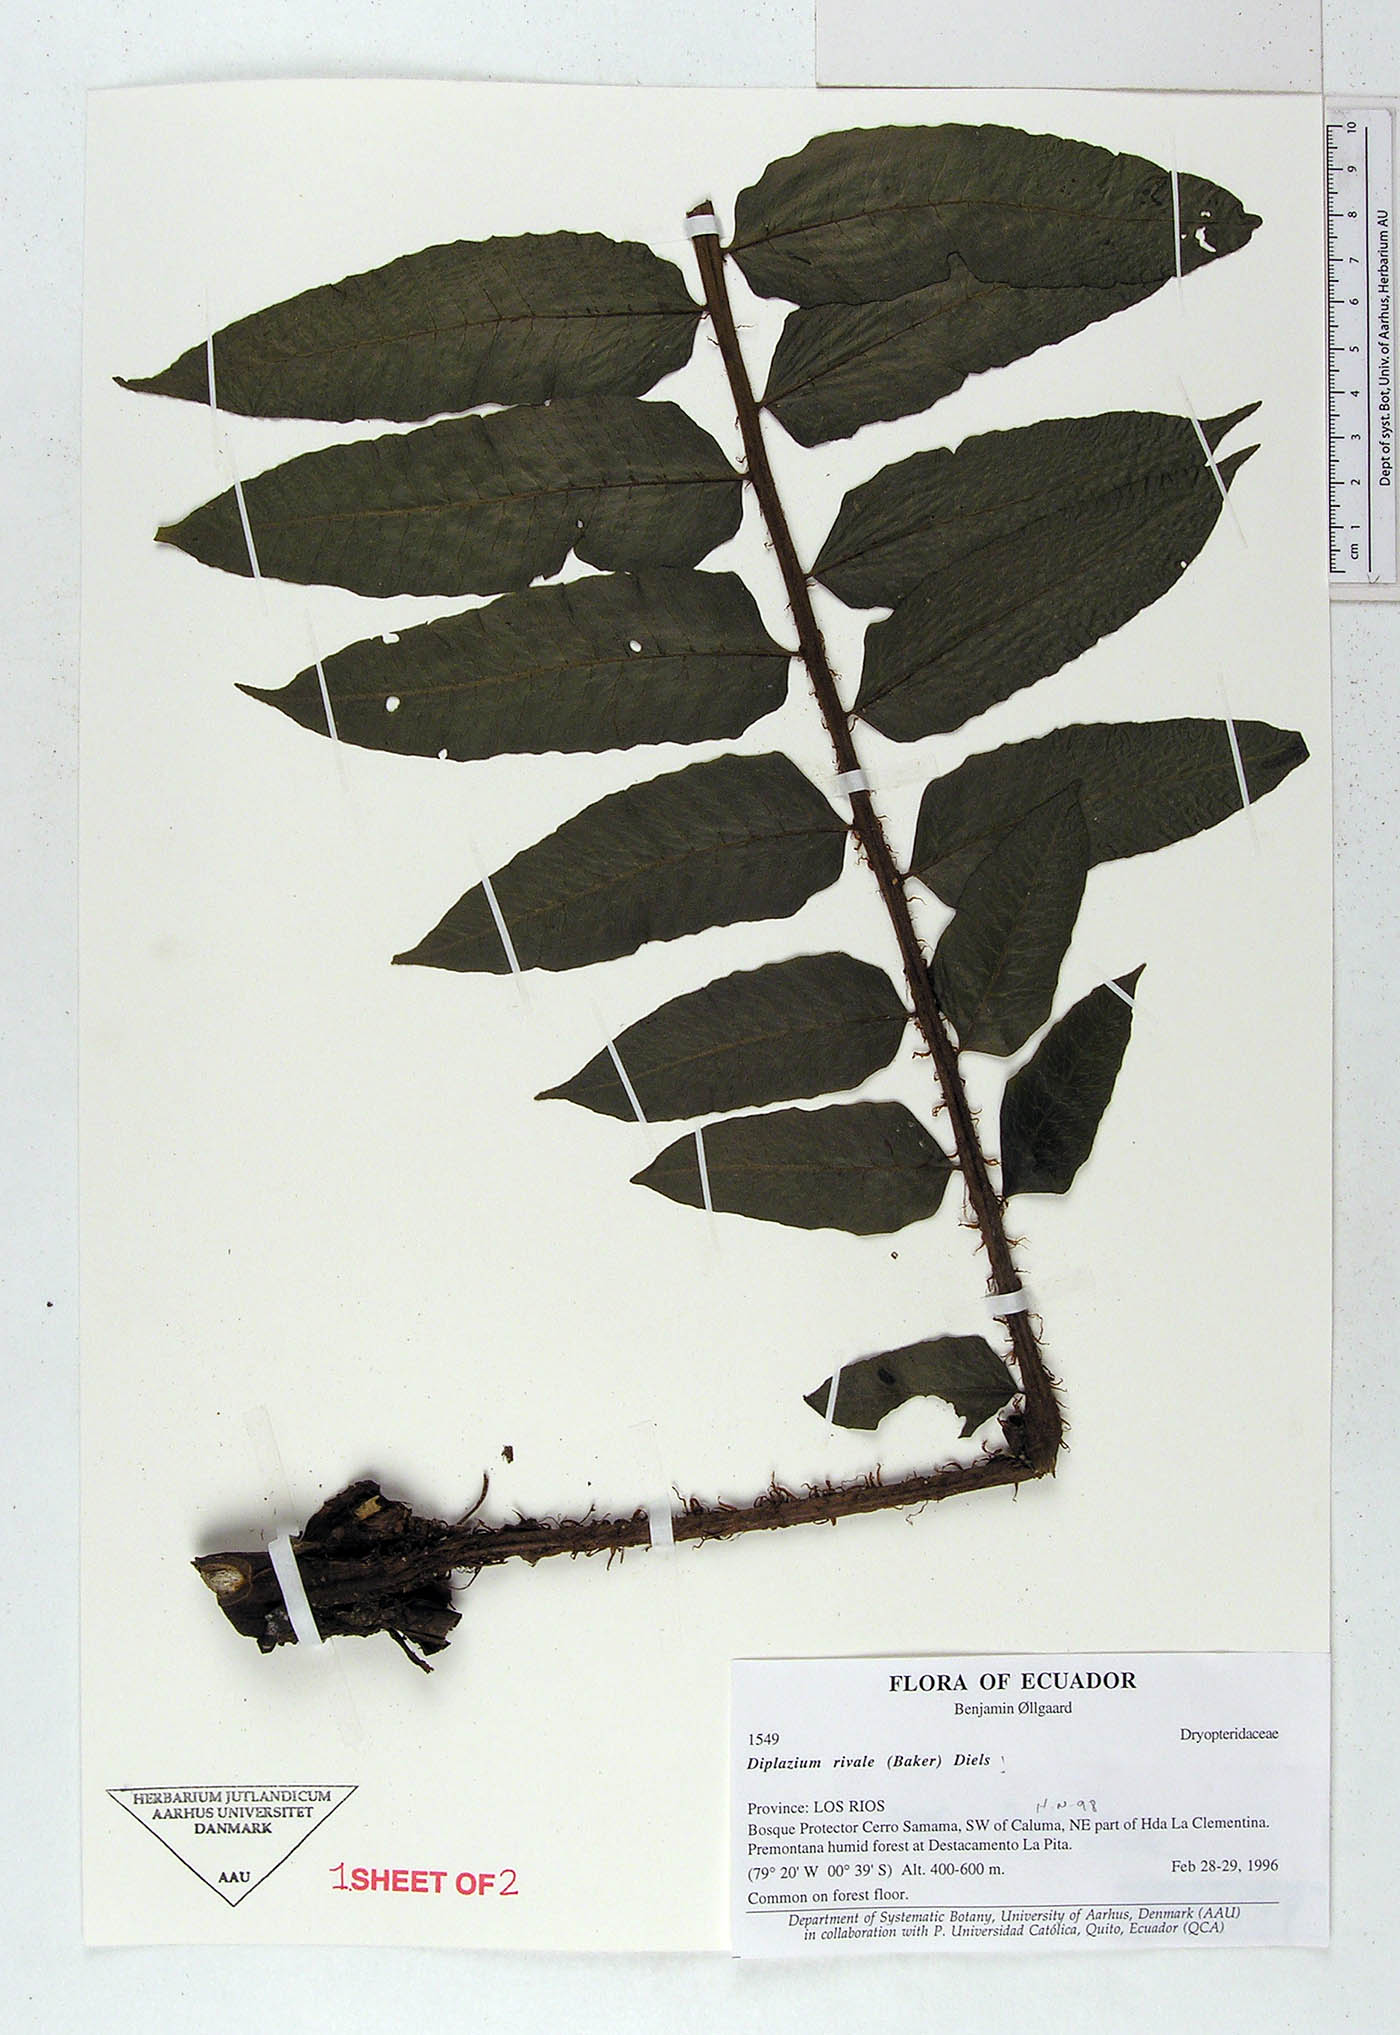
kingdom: Plantae
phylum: Tracheophyta
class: Polypodiopsida
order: Polypodiales
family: Athyriaceae
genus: Diplazium
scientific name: Diplazium rivale
